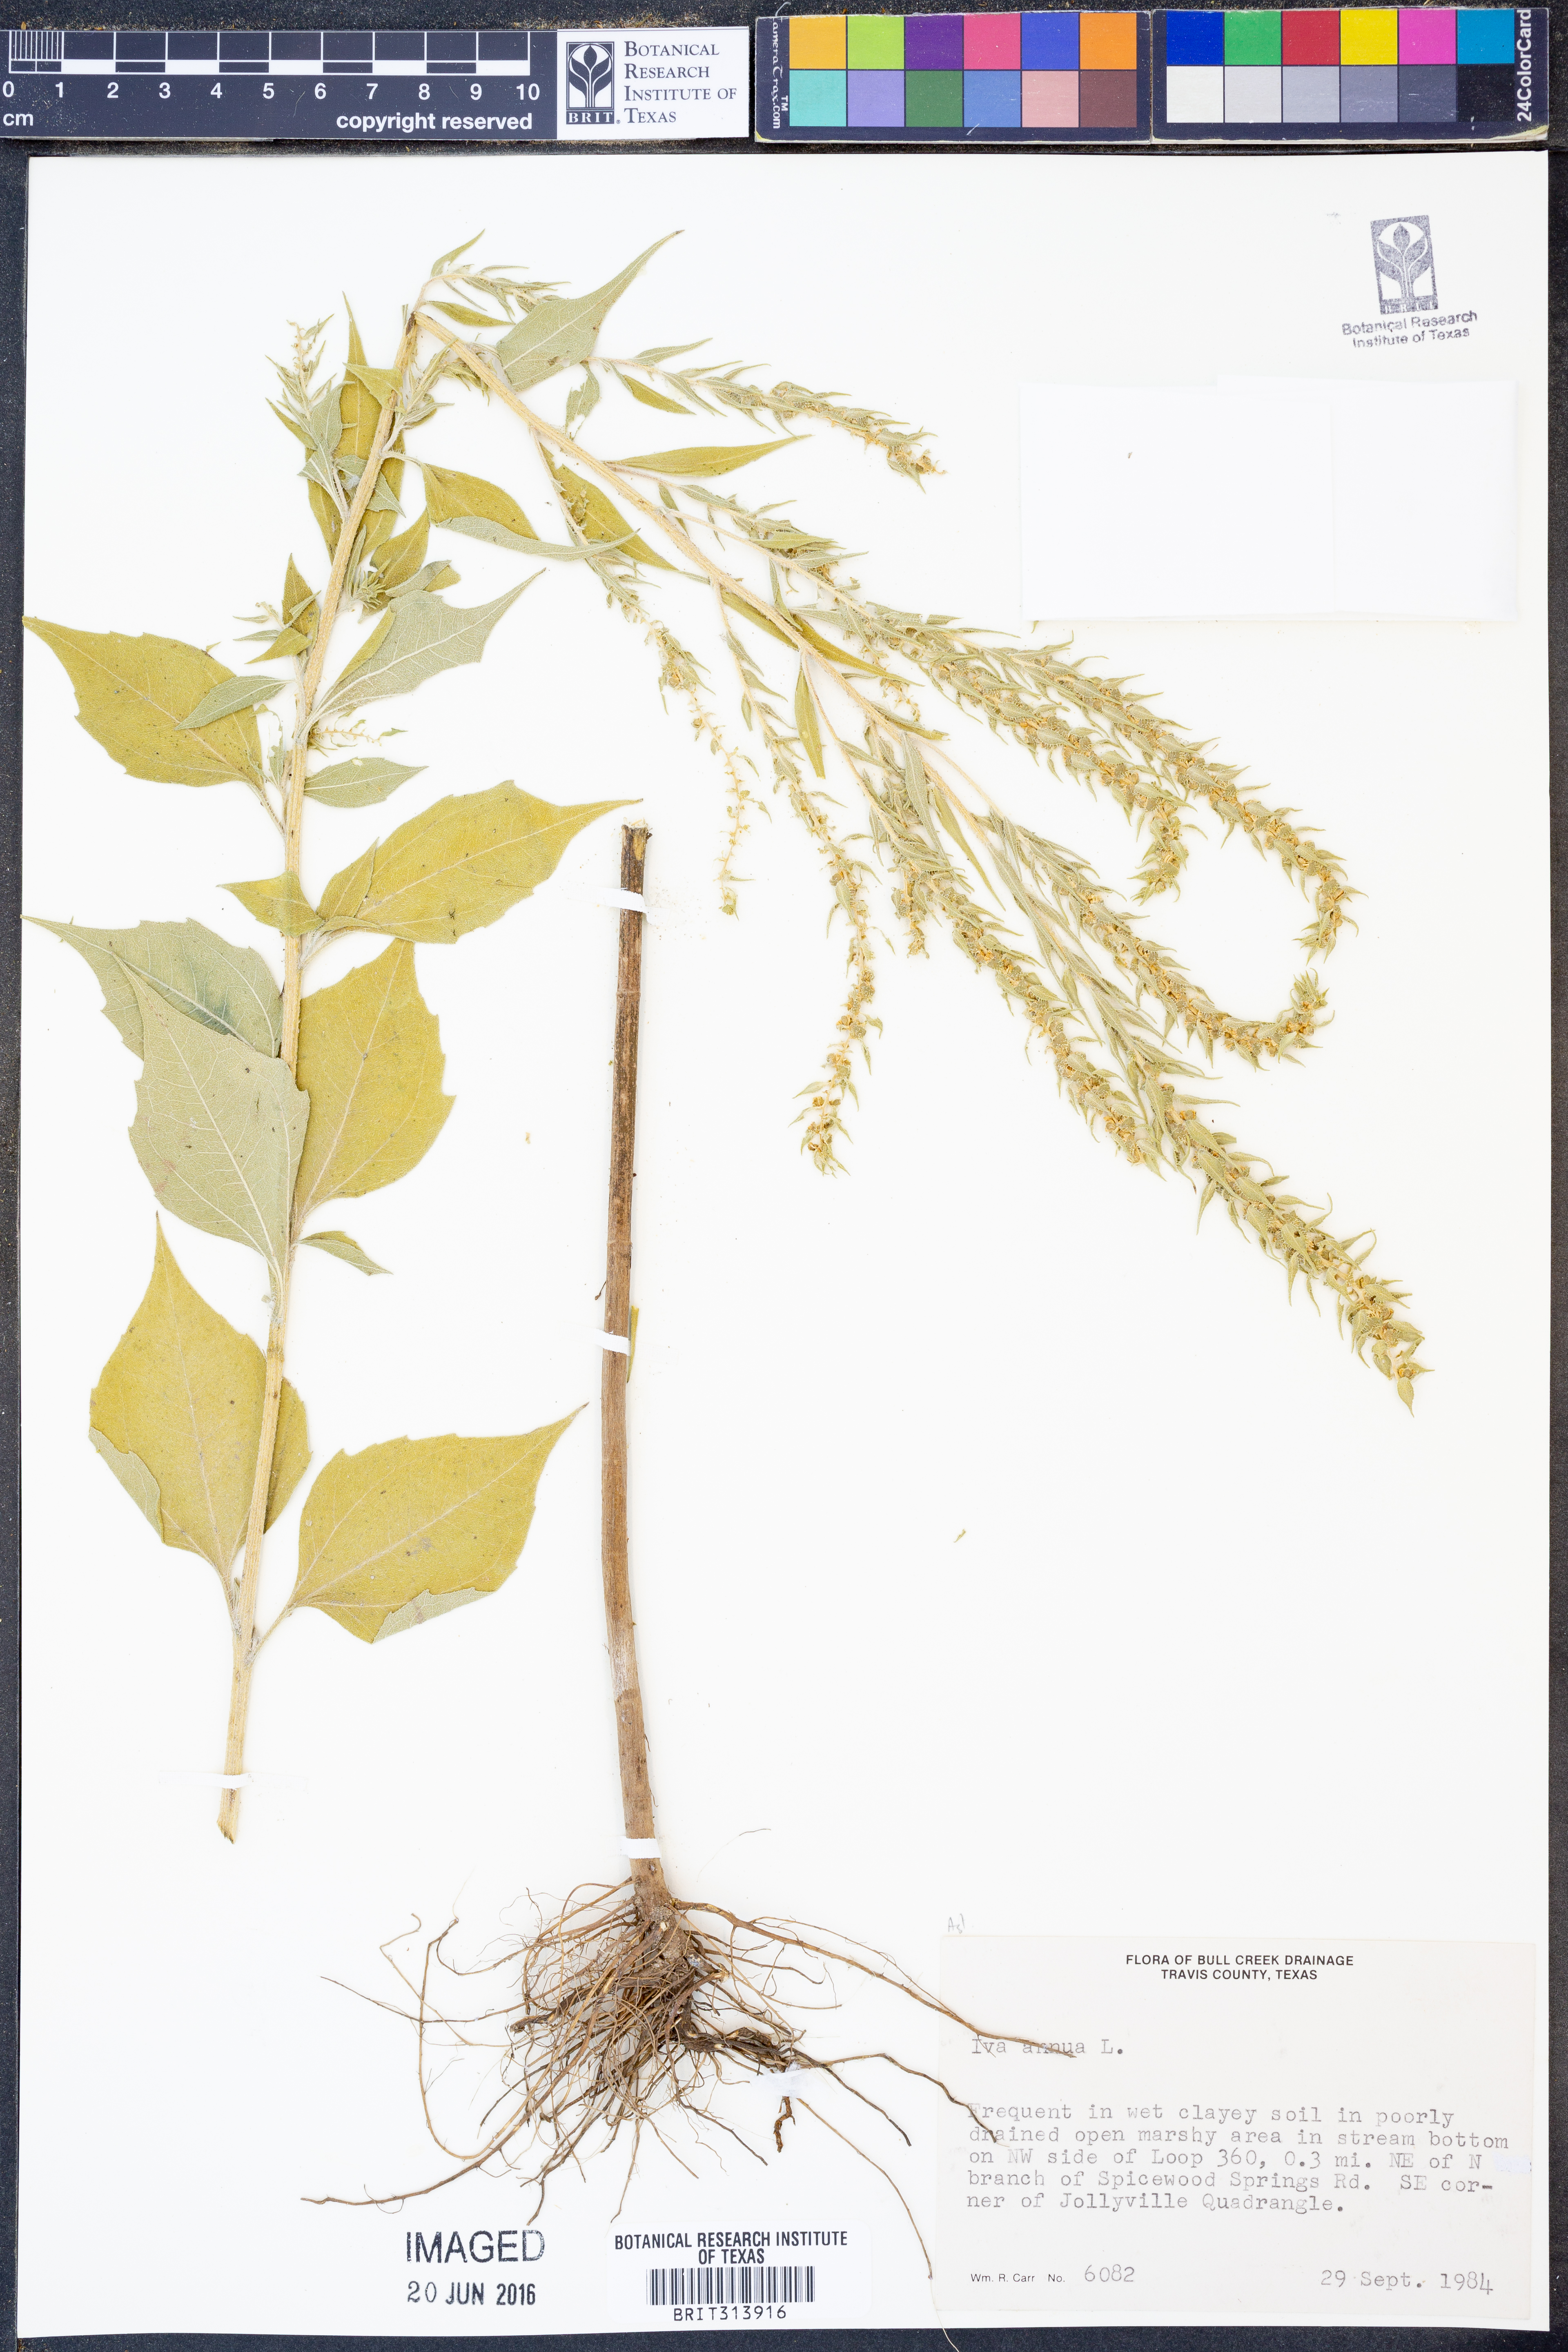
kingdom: Plantae
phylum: Tracheophyta
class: Magnoliopsida
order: Asterales
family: Asteraceae
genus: Iva
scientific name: Iva annua
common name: Marsh-elder
